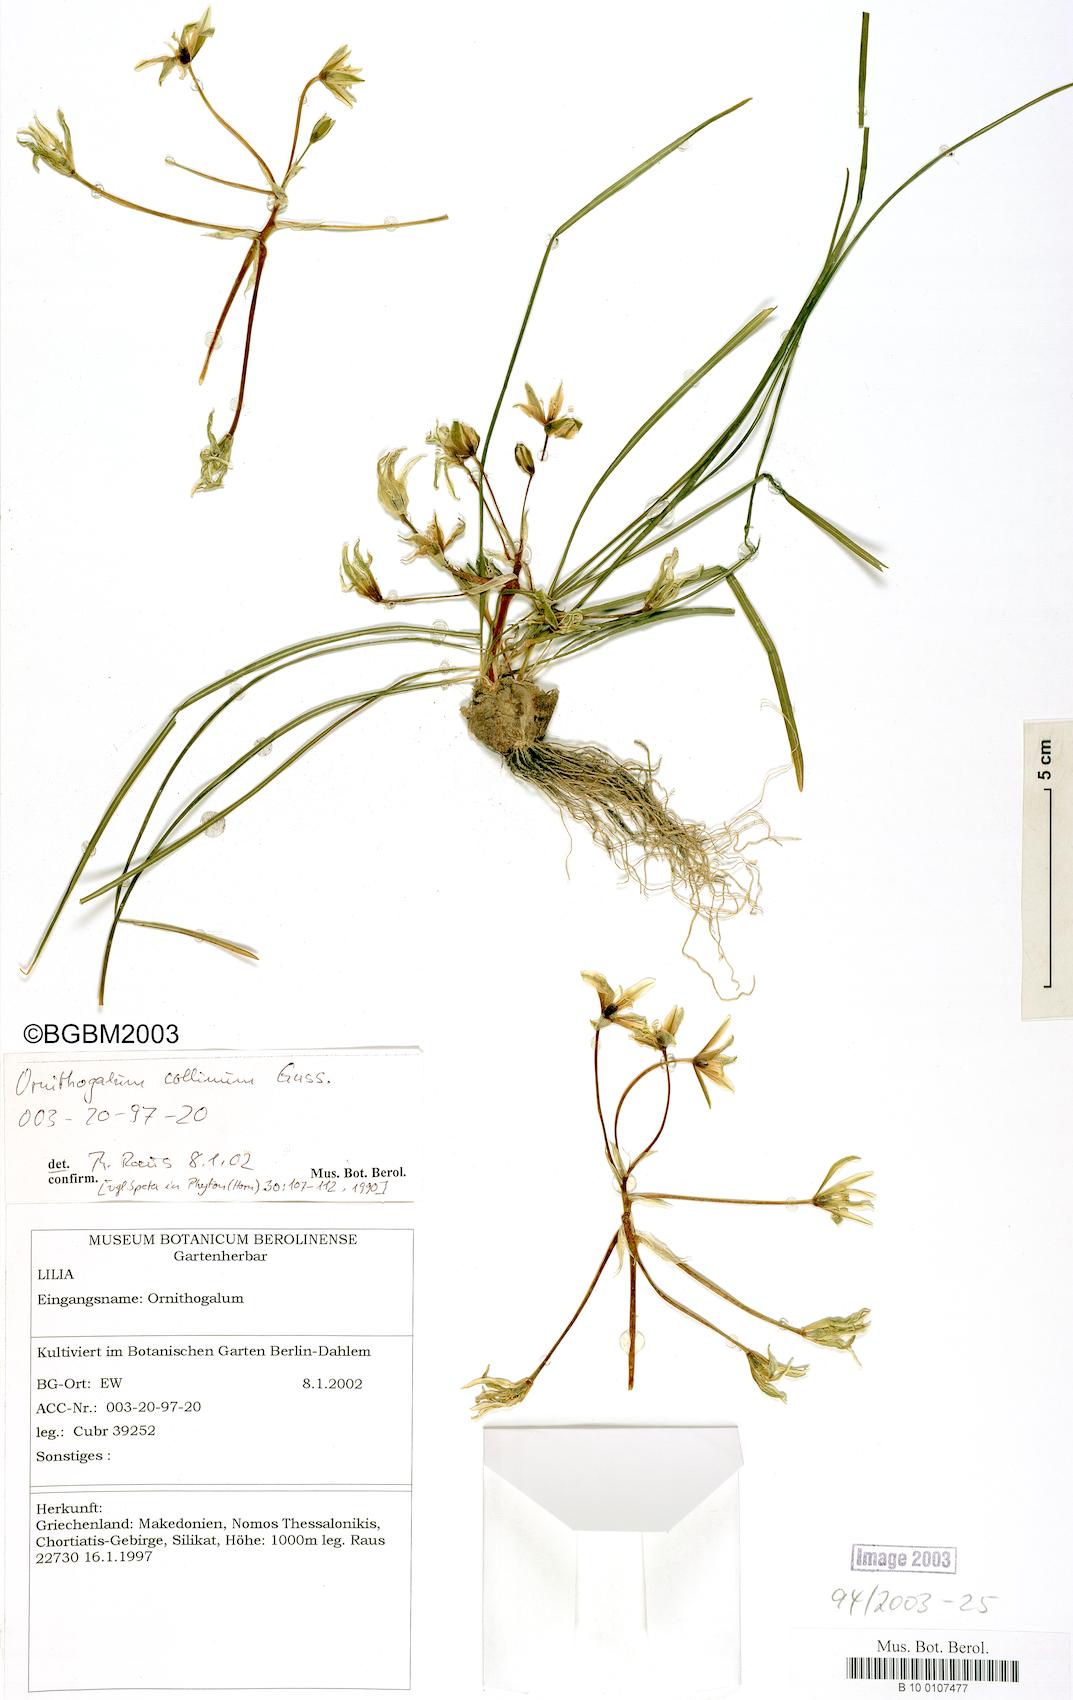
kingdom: Plantae
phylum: Tracheophyta
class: Liliopsida
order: Asparagales
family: Asparagaceae
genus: Ornithogalum
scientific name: Ornithogalum collinum
